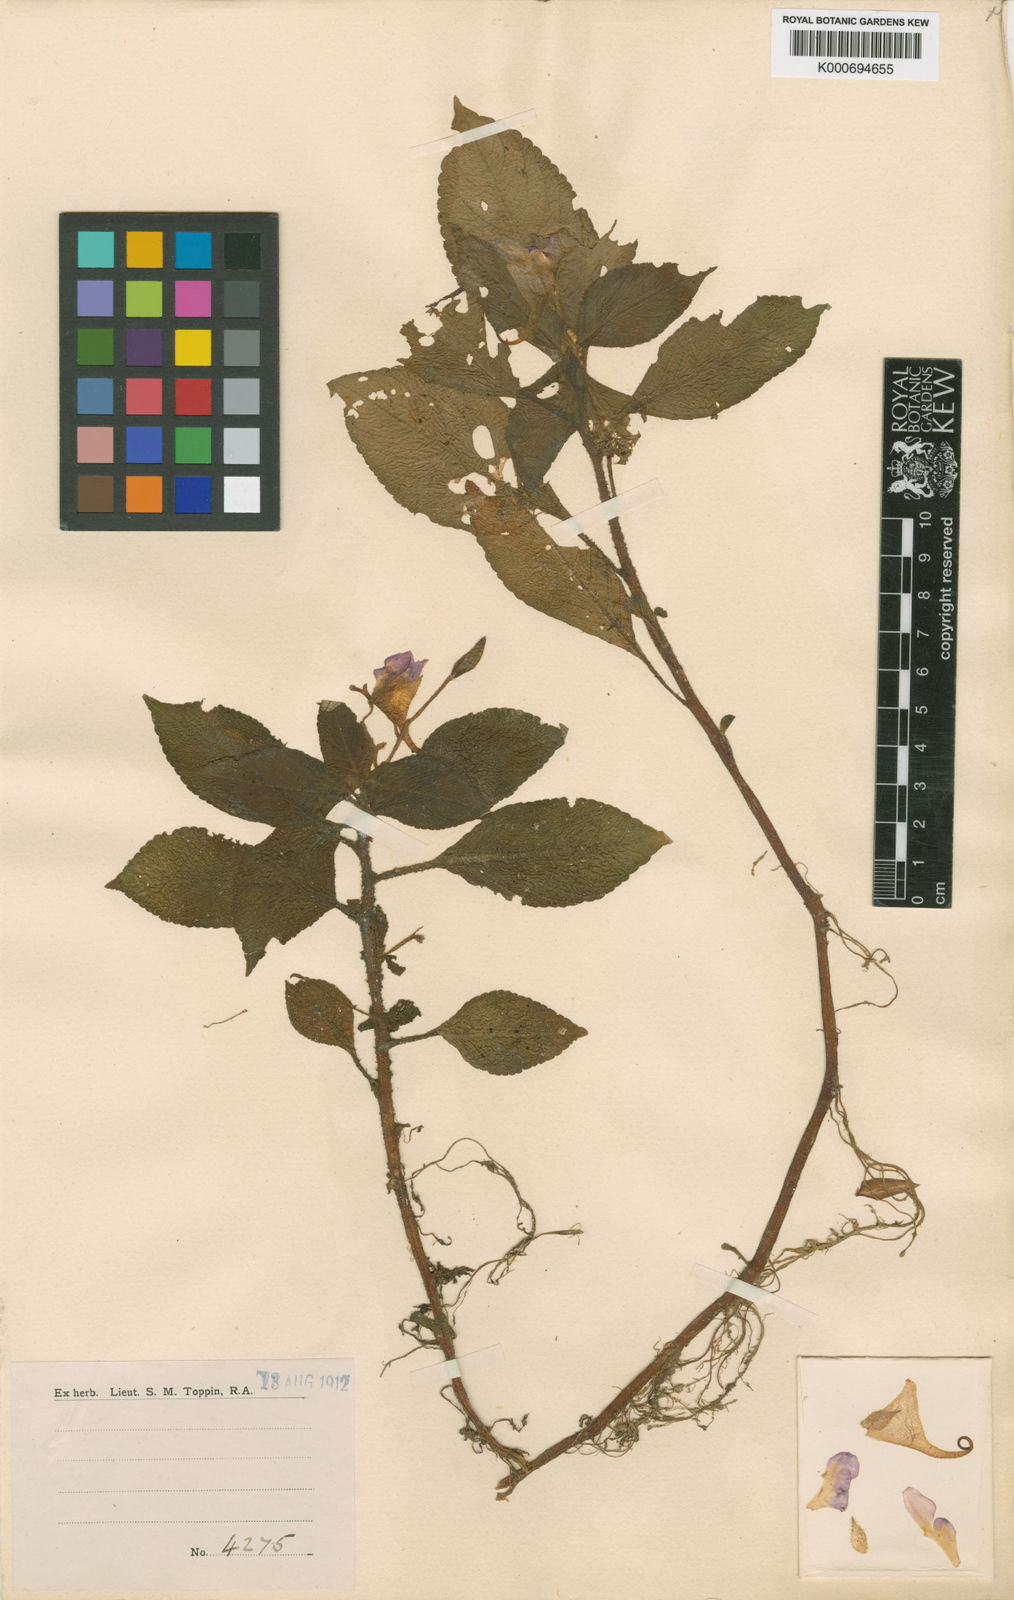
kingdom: Plantae
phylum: Tracheophyta
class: Magnoliopsida
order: Ericales
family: Balsaminaceae
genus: Impatiens
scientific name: Impatiens khasiana
